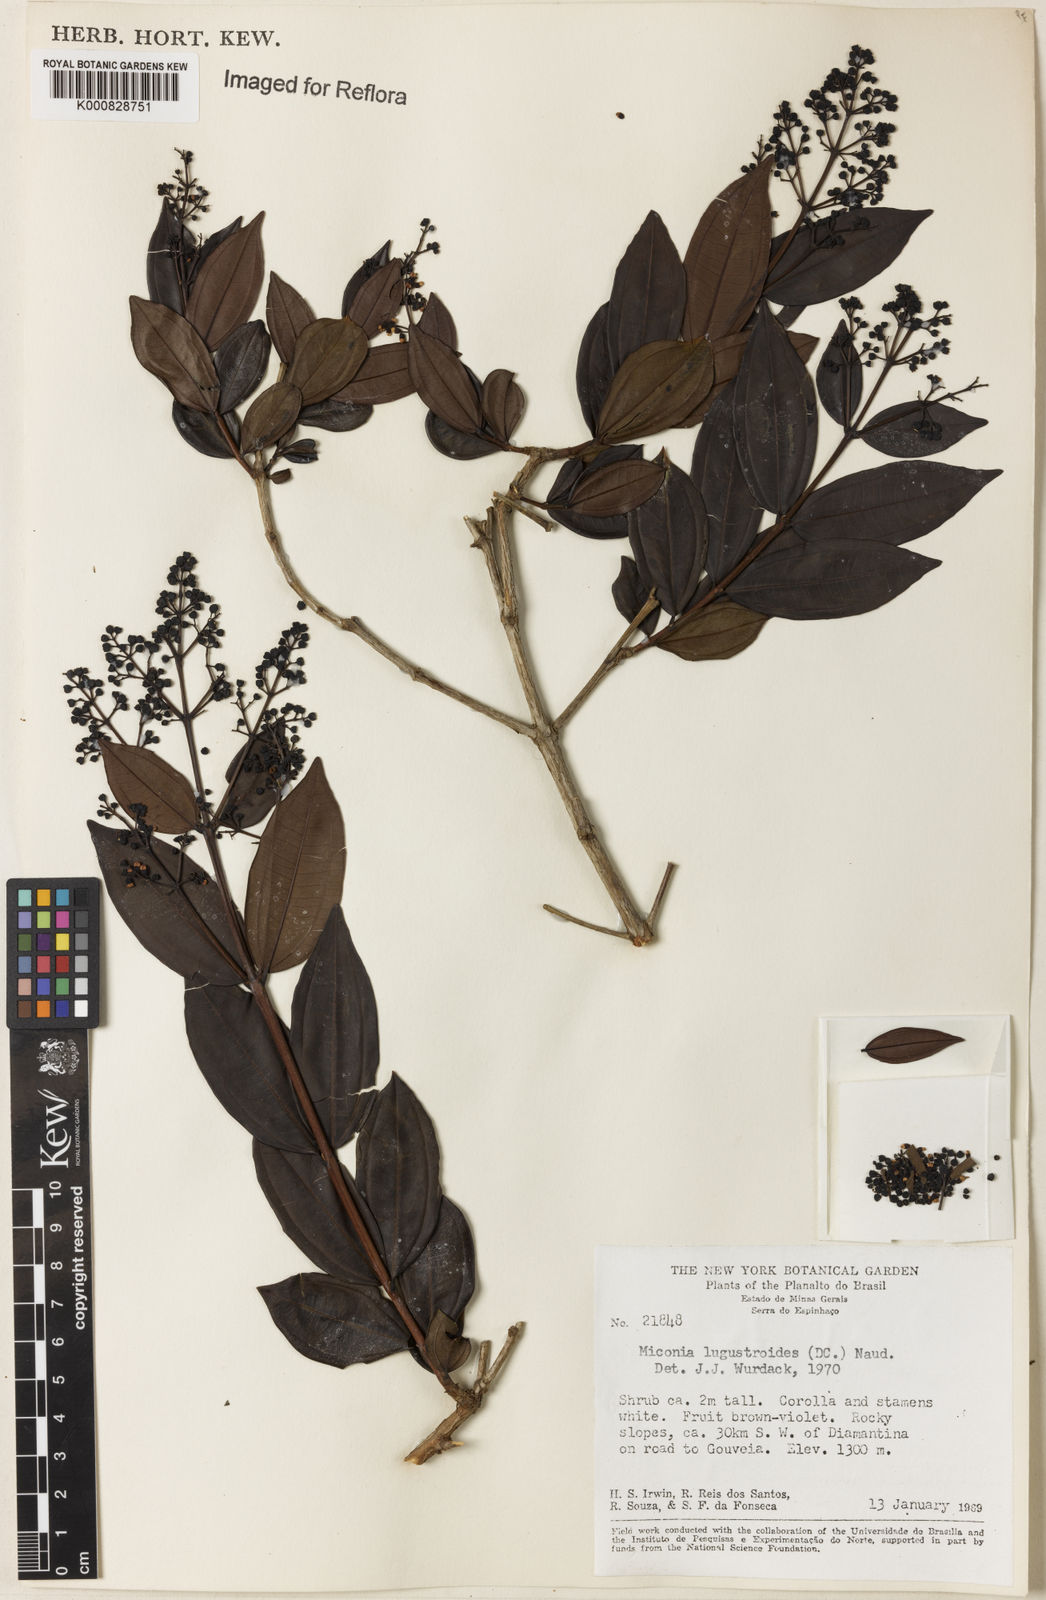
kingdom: Plantae
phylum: Tracheophyta
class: Magnoliopsida
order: Myrtales
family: Melastomataceae
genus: Miconia
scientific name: Miconia ligustroides
